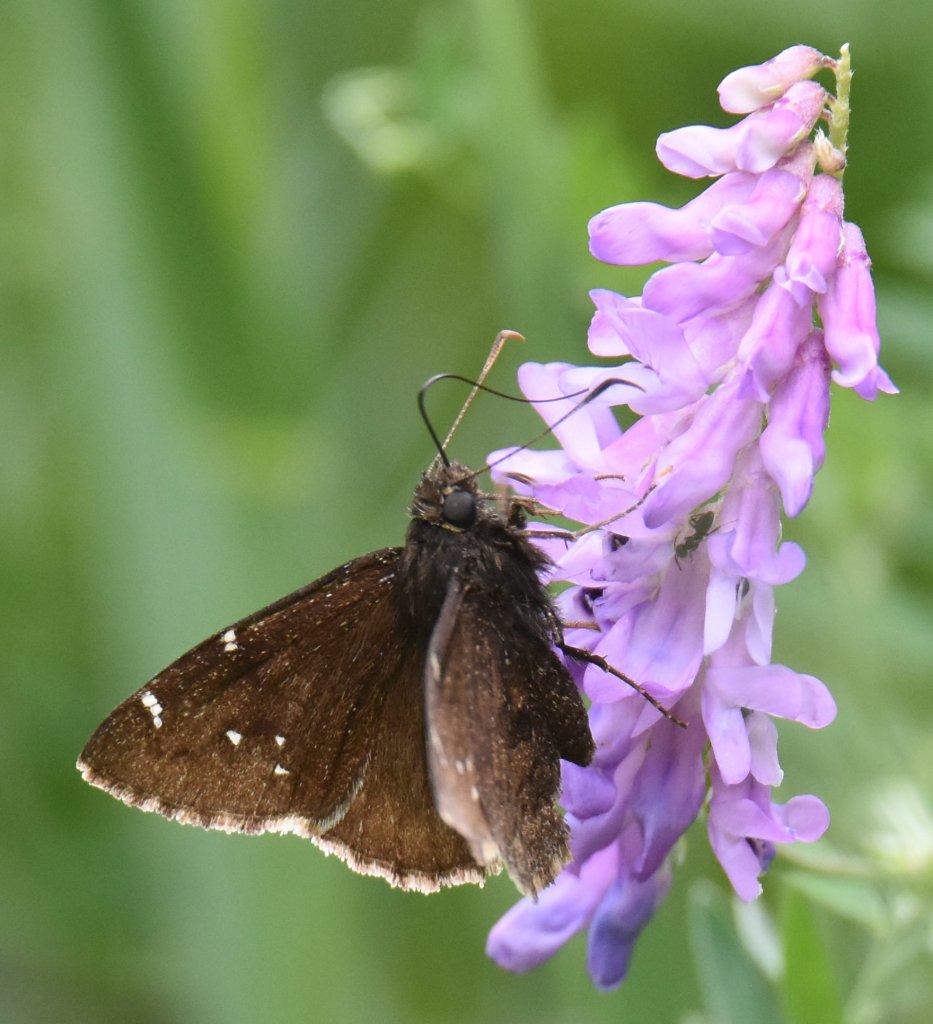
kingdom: Animalia
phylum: Arthropoda
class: Insecta
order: Lepidoptera
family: Hesperiidae
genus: Autochton
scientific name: Autochton
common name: Northern Cloudywing
